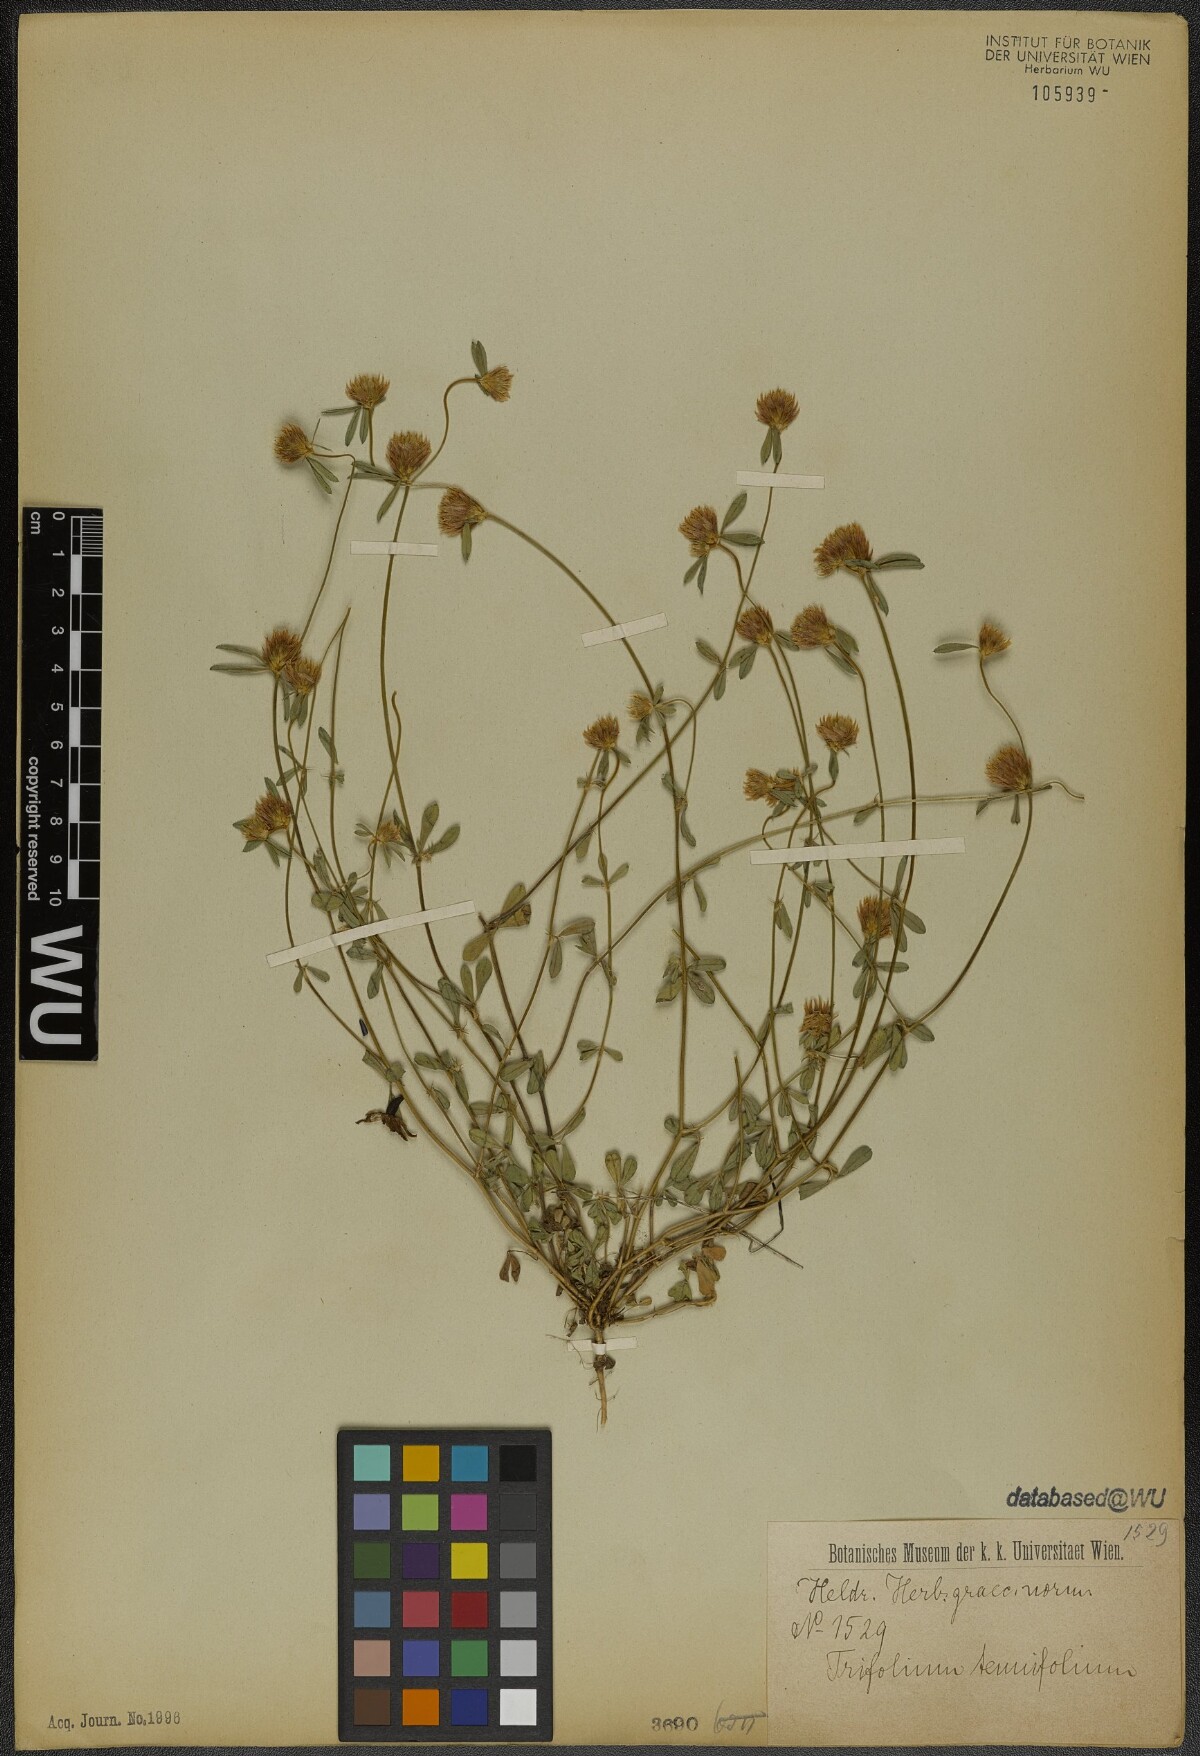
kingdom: Plantae
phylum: Tracheophyta
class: Magnoliopsida
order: Fabales
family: Fabaceae
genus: Trifolium
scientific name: Trifolium tenuifolium
